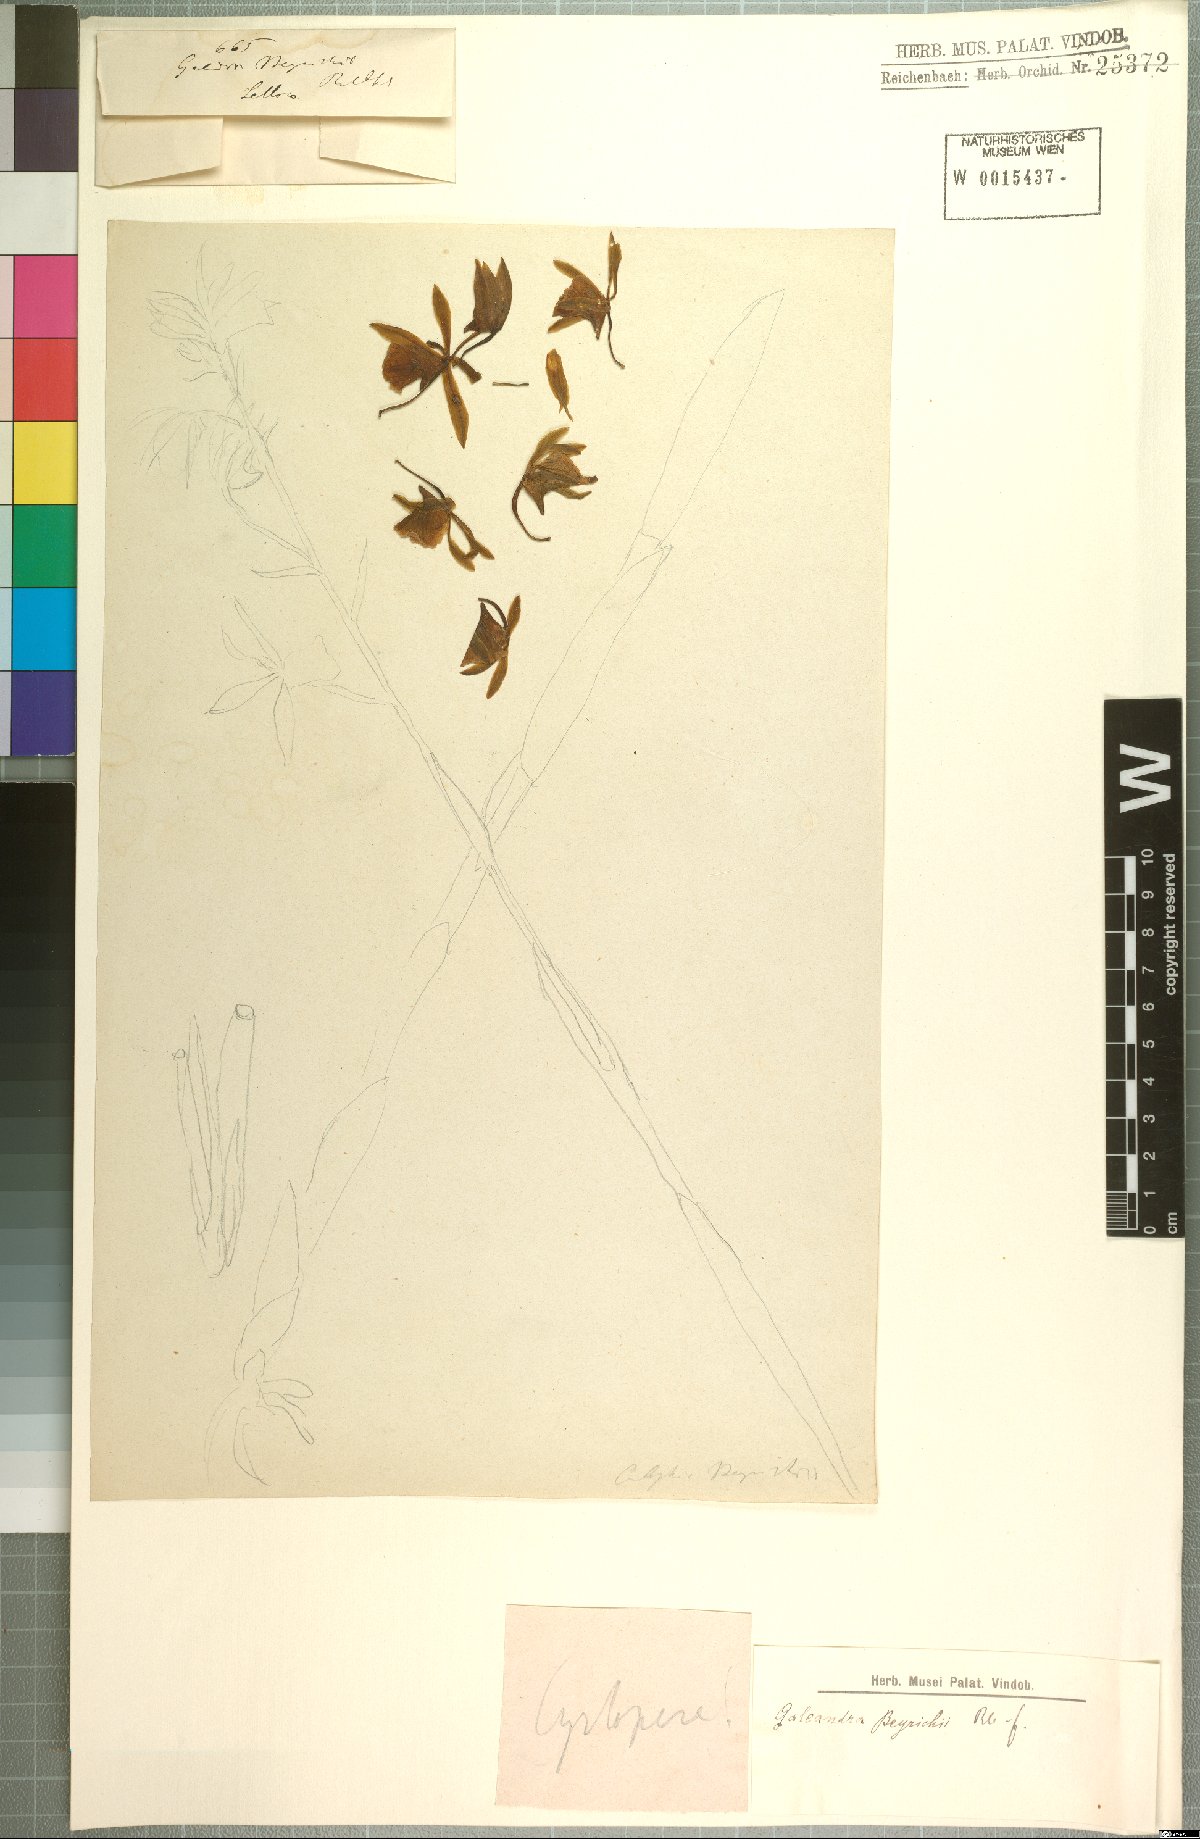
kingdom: Plantae
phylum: Tracheophyta
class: Liliopsida
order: Asparagales
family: Orchidaceae
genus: Galeandra
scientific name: Galeandra beyrichii
